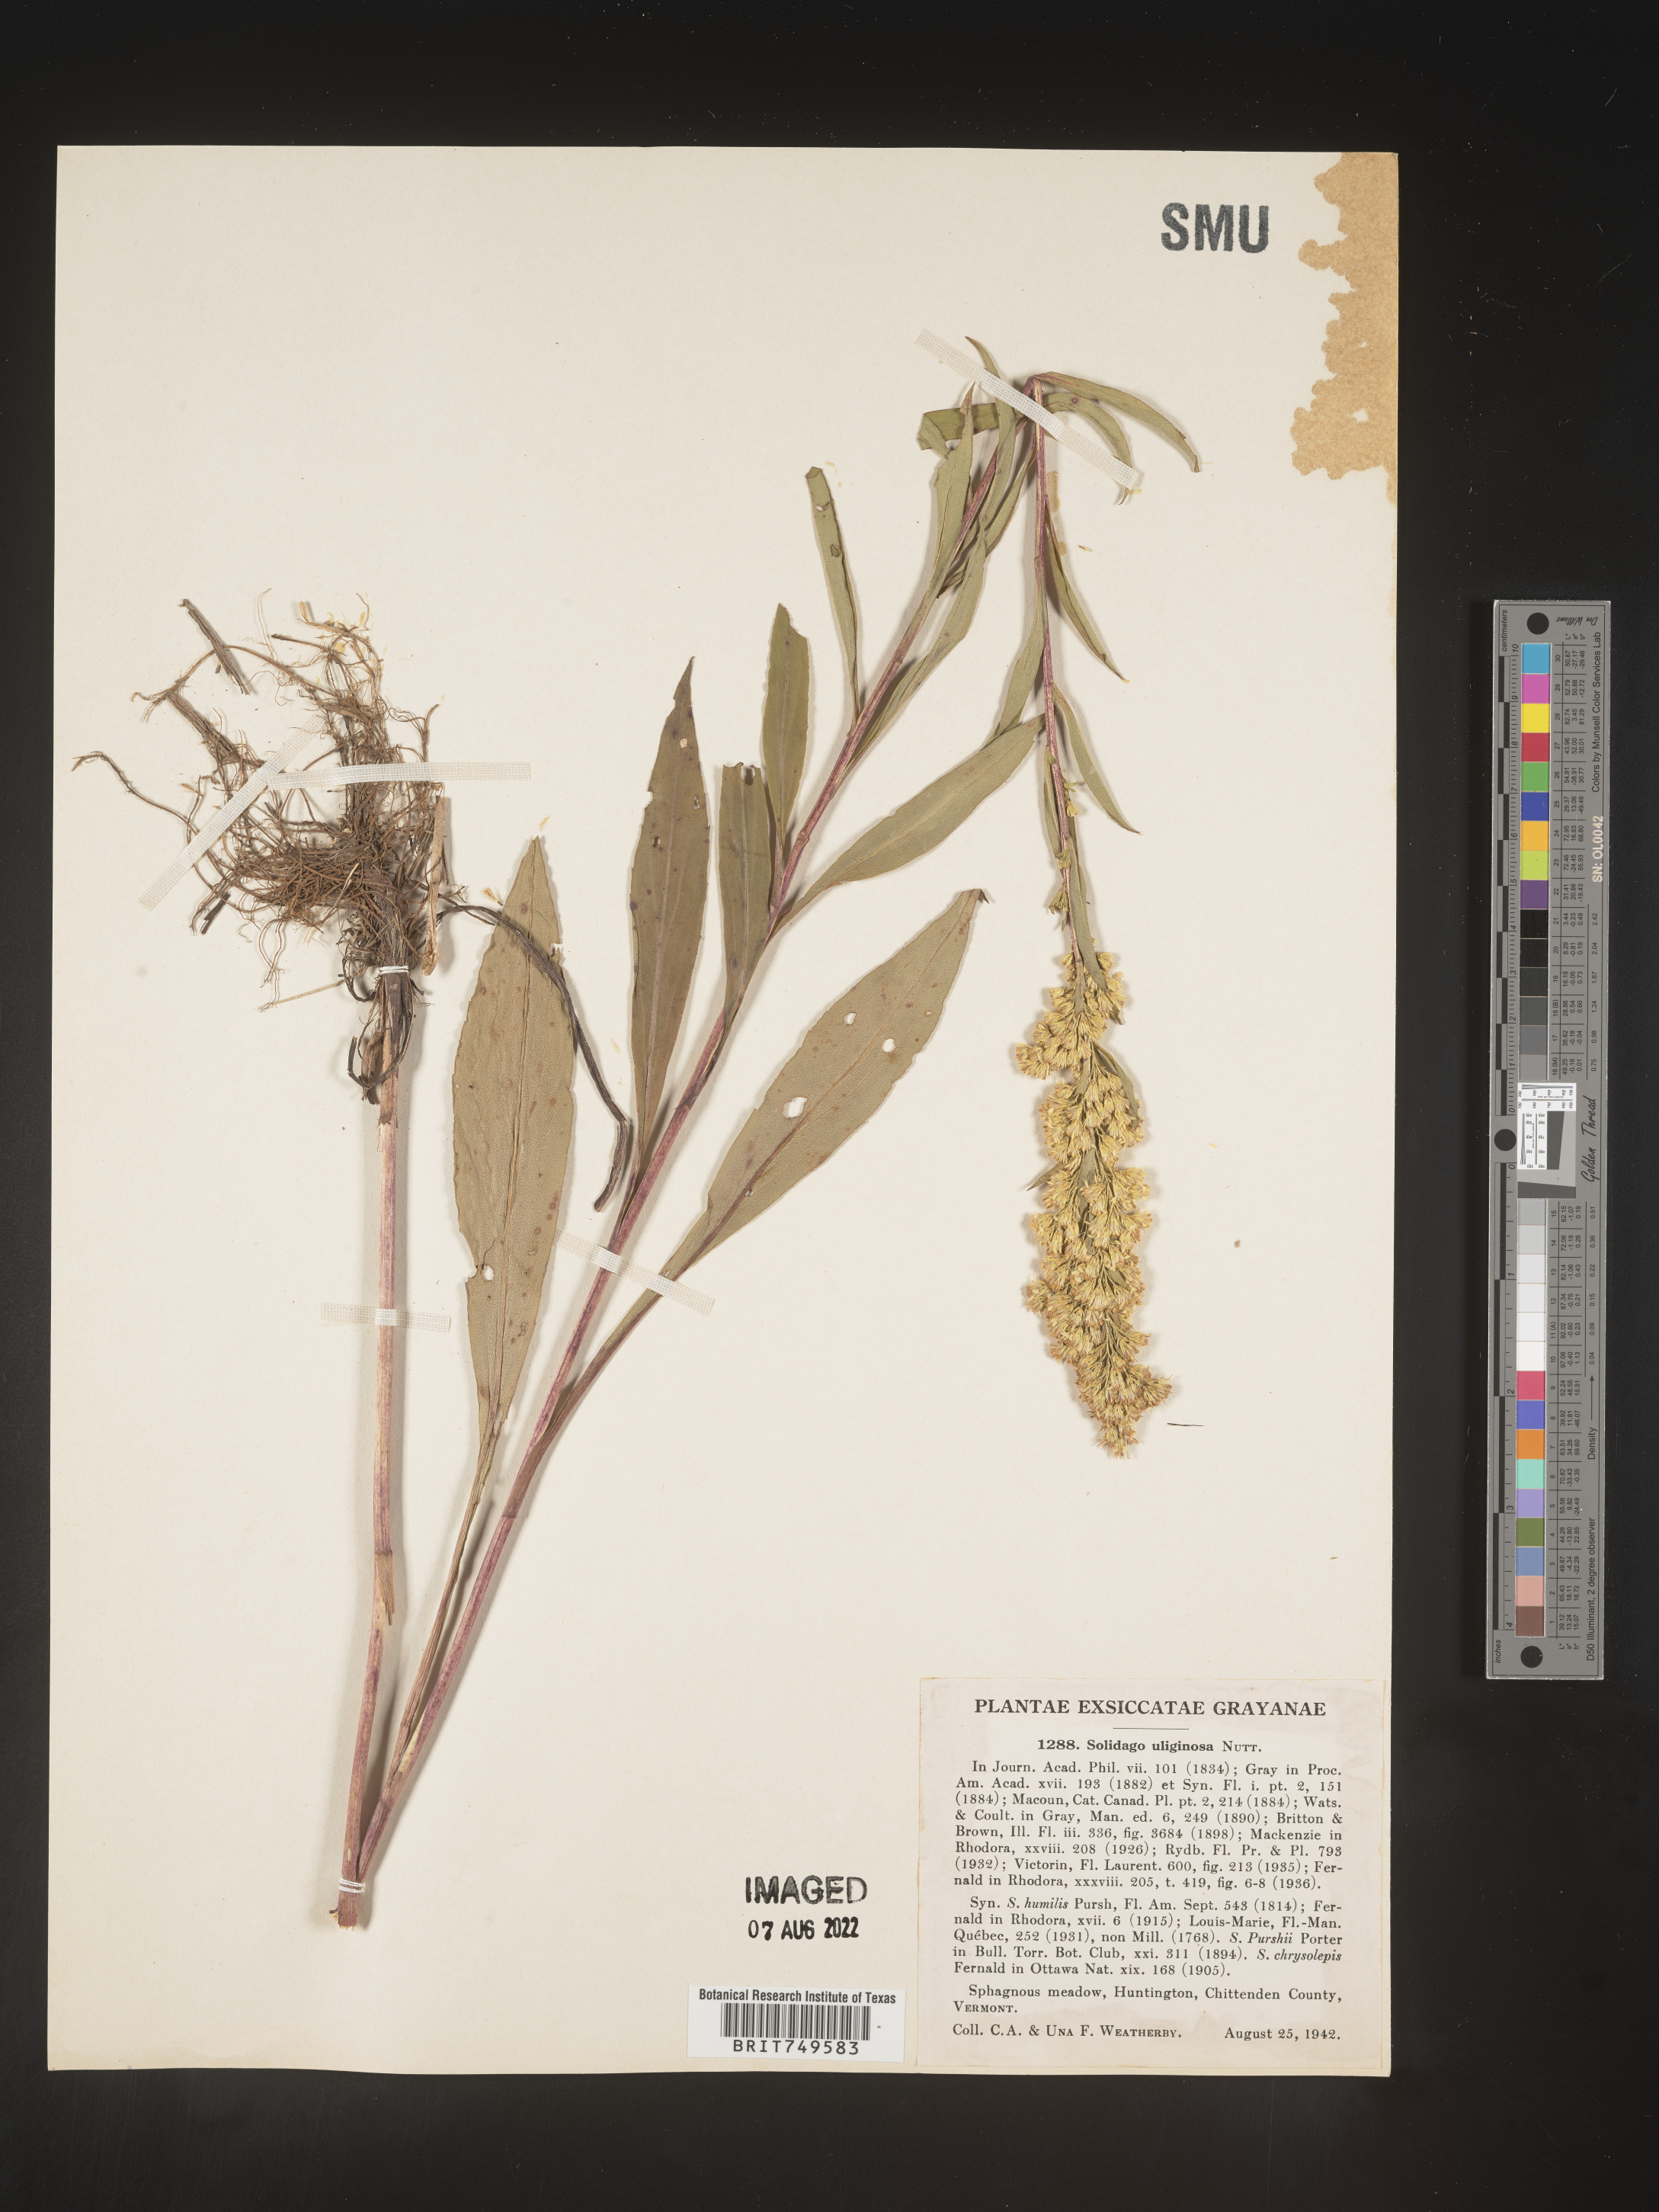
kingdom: Plantae
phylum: Tracheophyta
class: Magnoliopsida
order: Asterales
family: Asteraceae
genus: Solidago
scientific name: Solidago uliginosa
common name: Bog goldenrod
